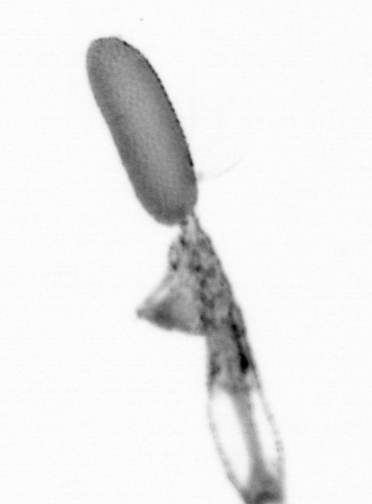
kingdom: Animalia
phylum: Arthropoda
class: Copepoda
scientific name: Copepoda
